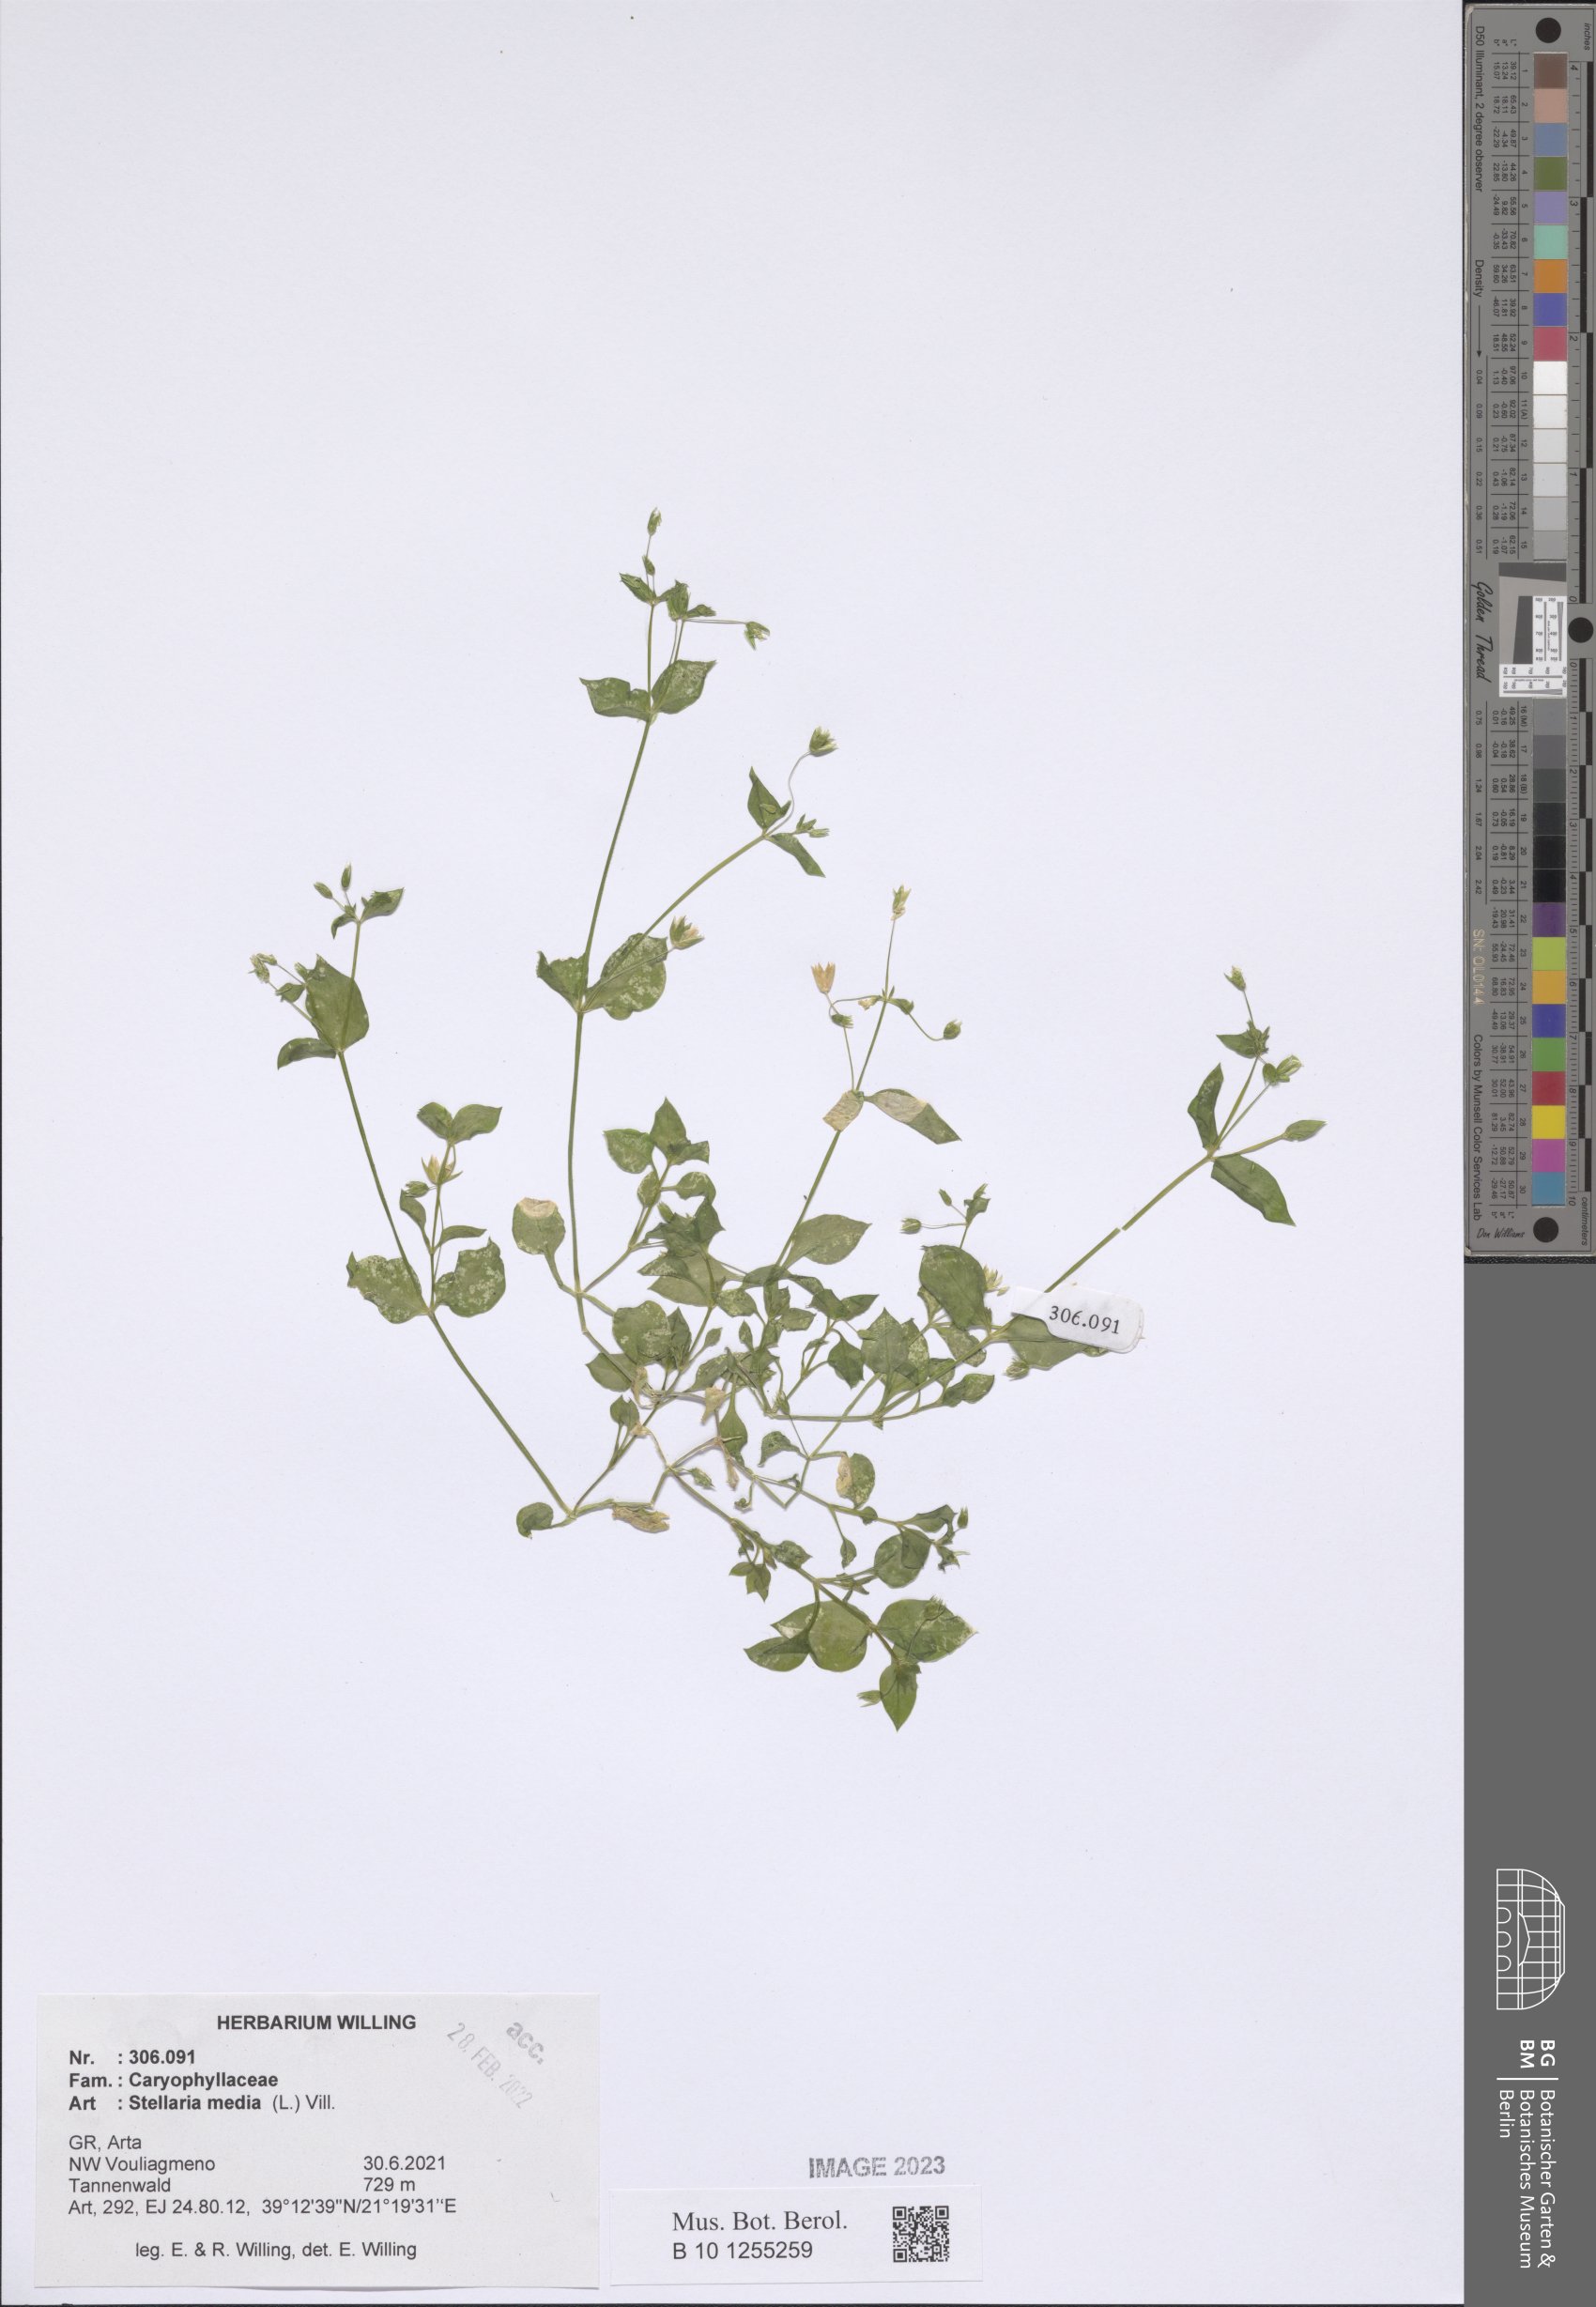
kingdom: Plantae
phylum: Tracheophyta
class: Magnoliopsida
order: Caryophyllales
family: Caryophyllaceae
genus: Stellaria
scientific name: Stellaria media
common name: Common chickweed
